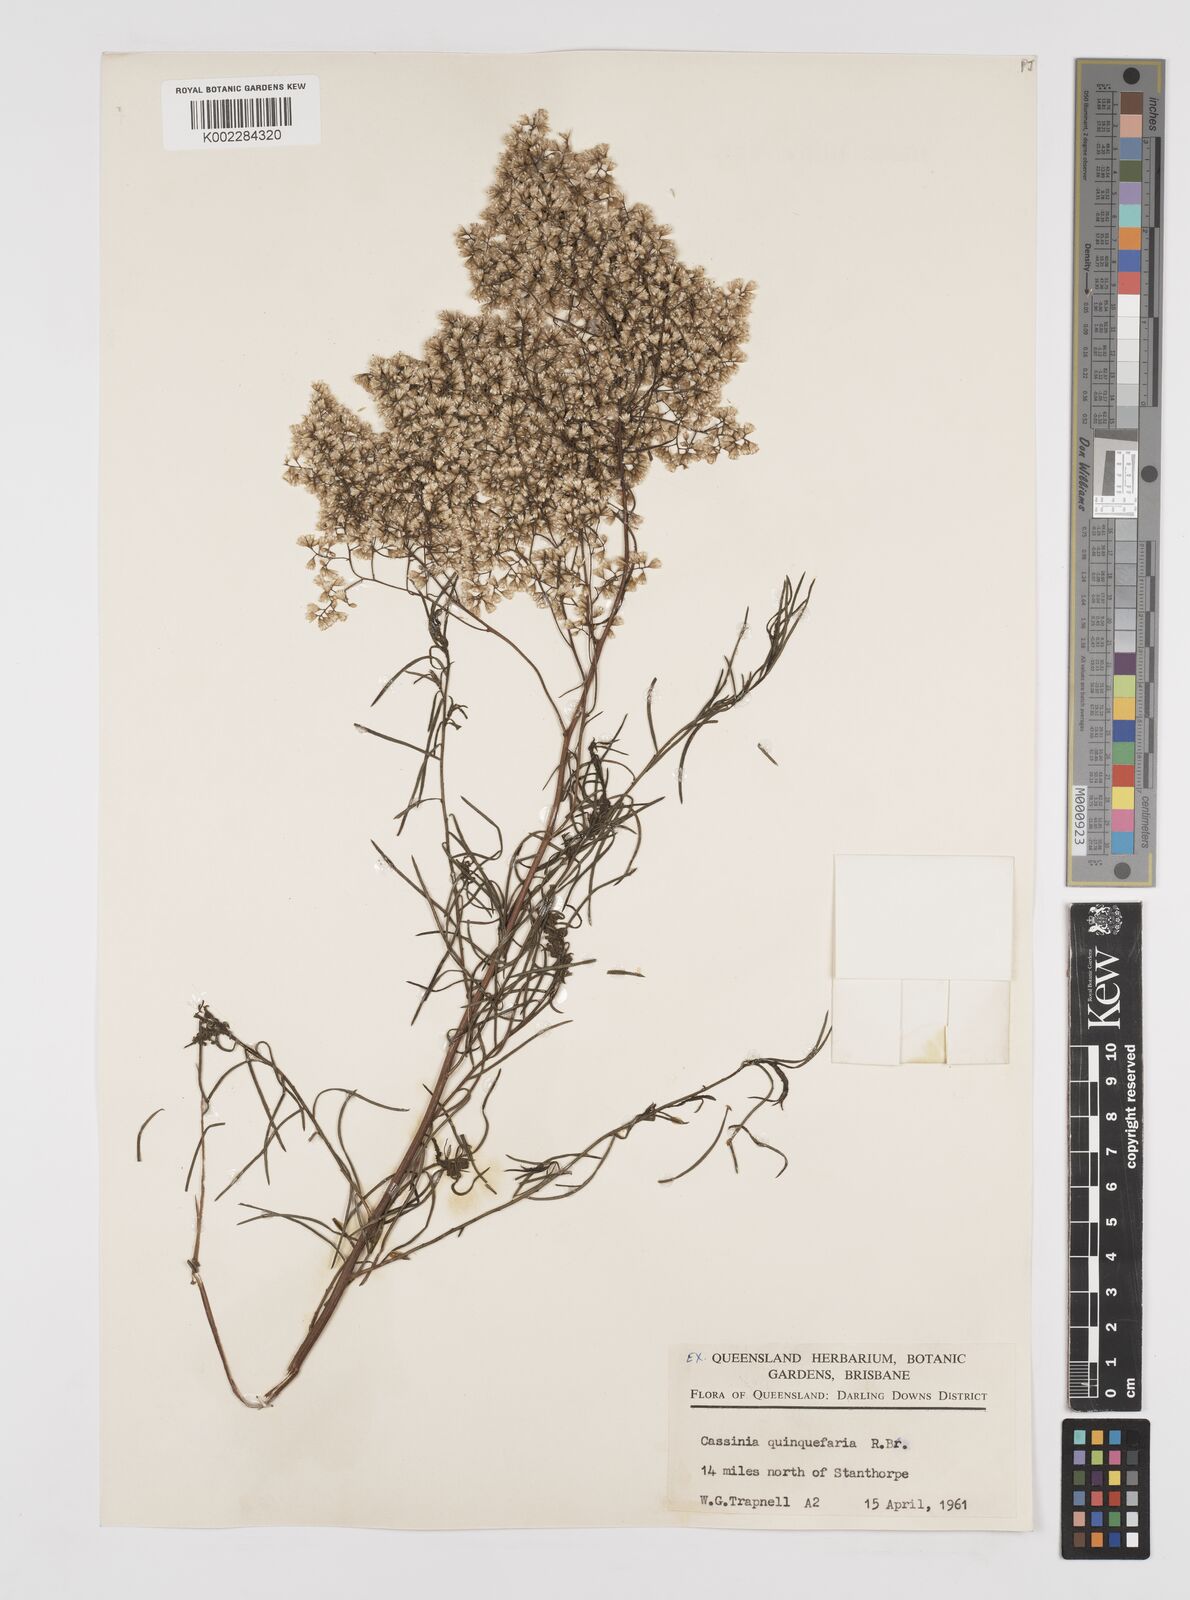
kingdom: Plantae
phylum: Tracheophyta
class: Magnoliopsida
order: Asterales
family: Asteraceae
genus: Cassinia
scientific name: Cassinia quinquefaria
